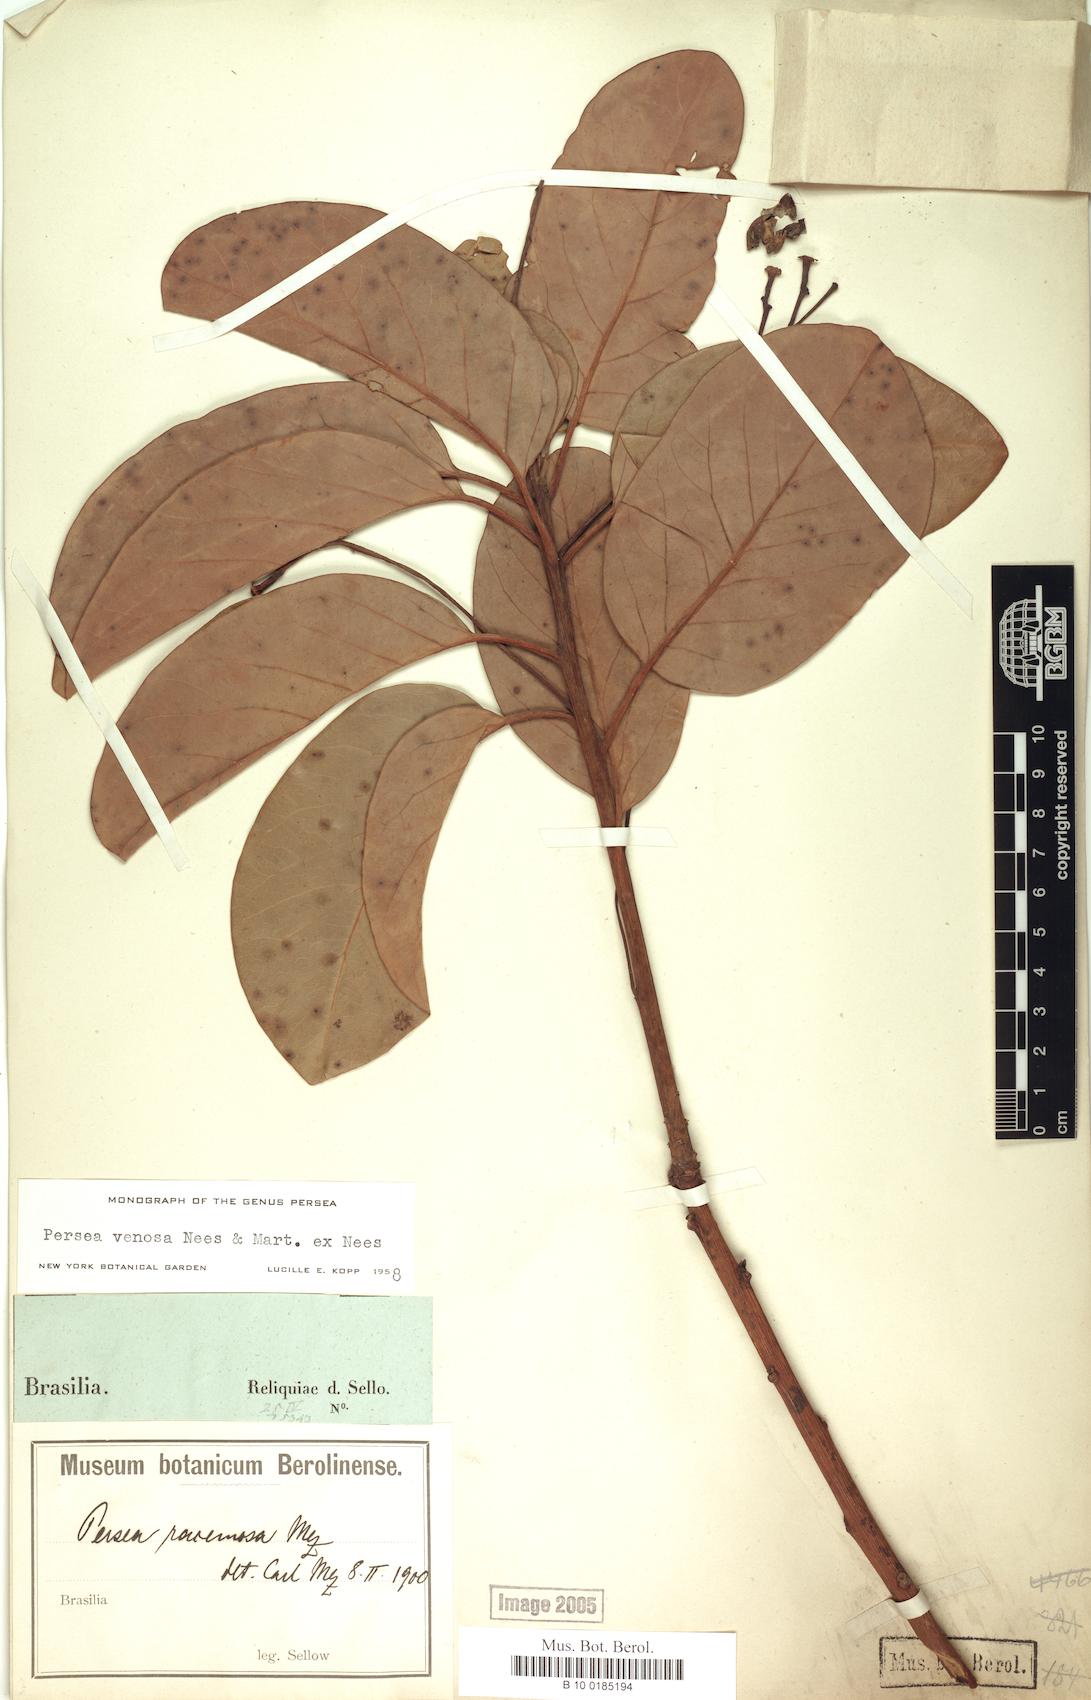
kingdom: Plantae
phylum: Tracheophyta
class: Magnoliopsida
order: Laurales
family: Lauraceae
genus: Persea
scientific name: Persea venosa
